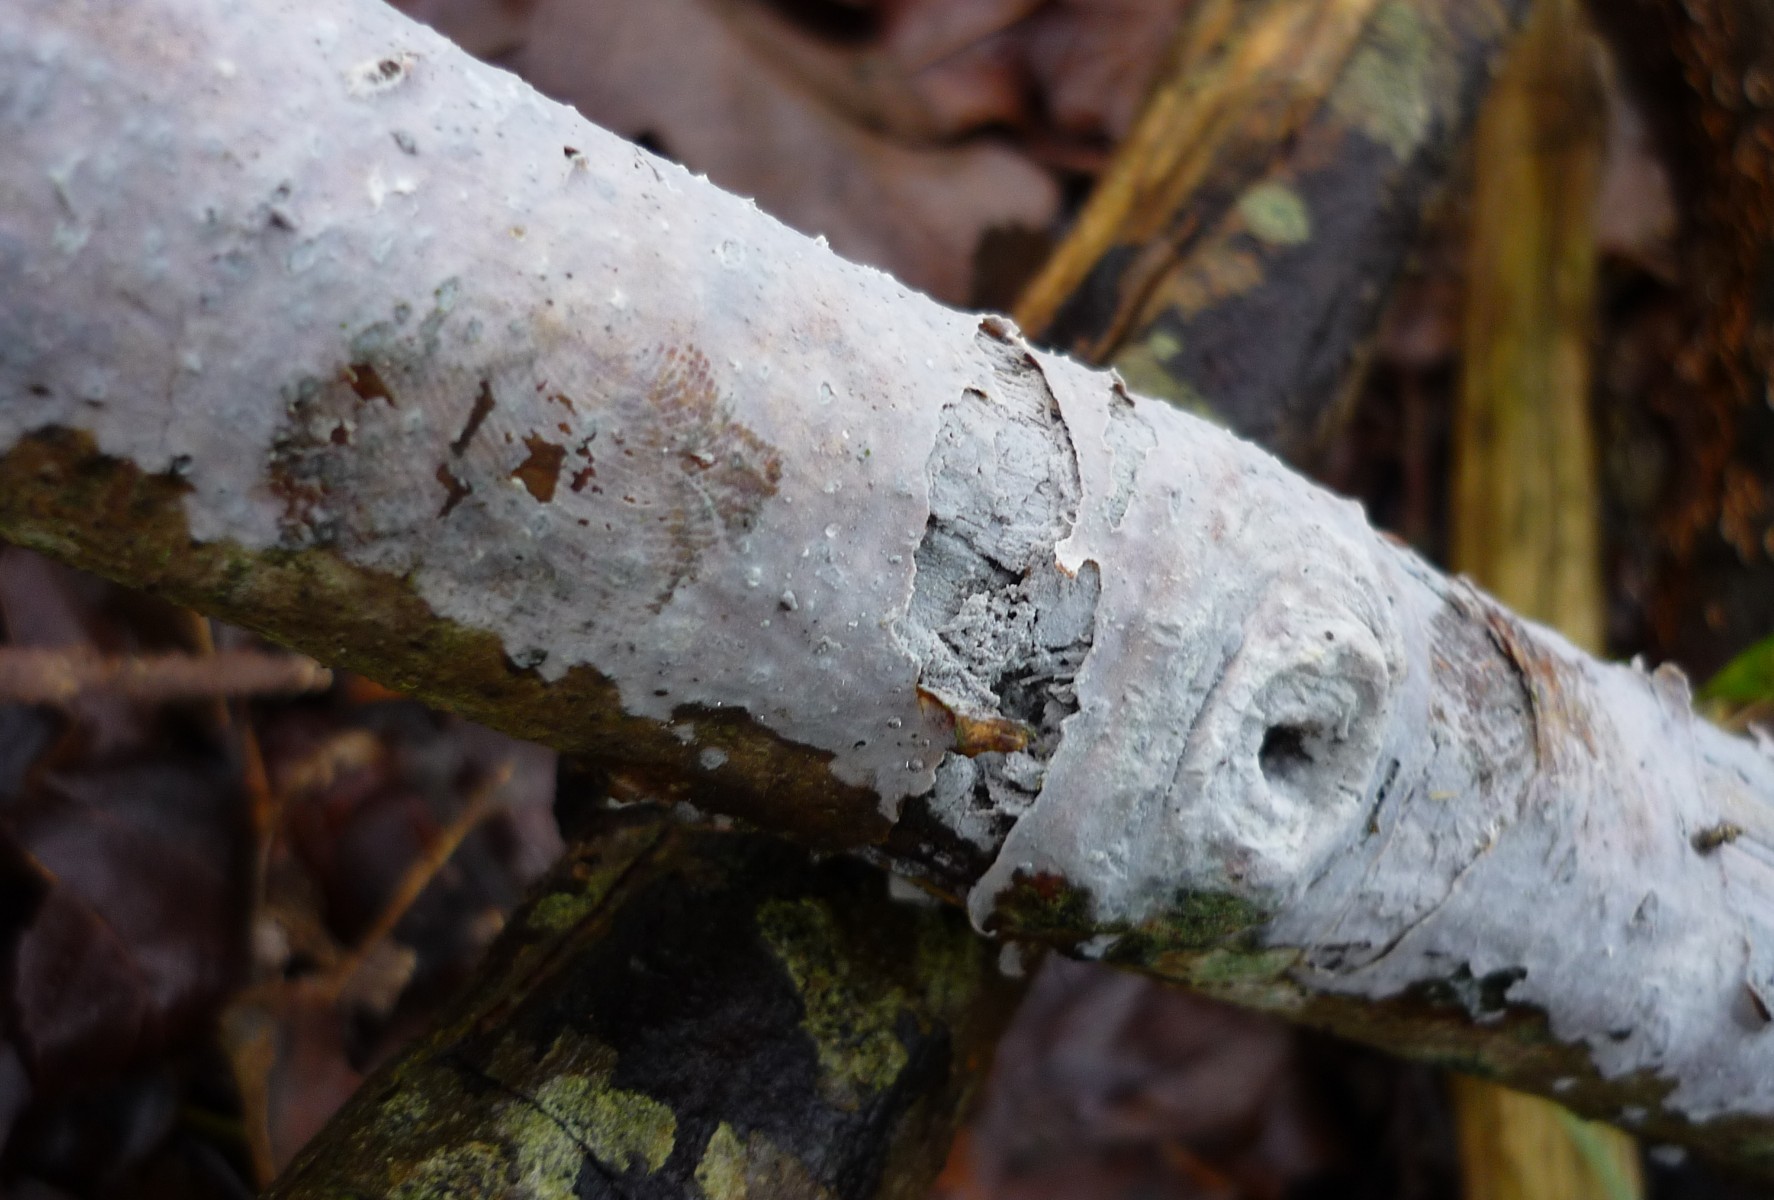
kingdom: Fungi
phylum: Basidiomycota
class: Tremellomycetes
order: Tremellales
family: Exidiaceae
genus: Exidiopsis
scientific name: Exidiopsis effusa
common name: smuk bævrehinde
